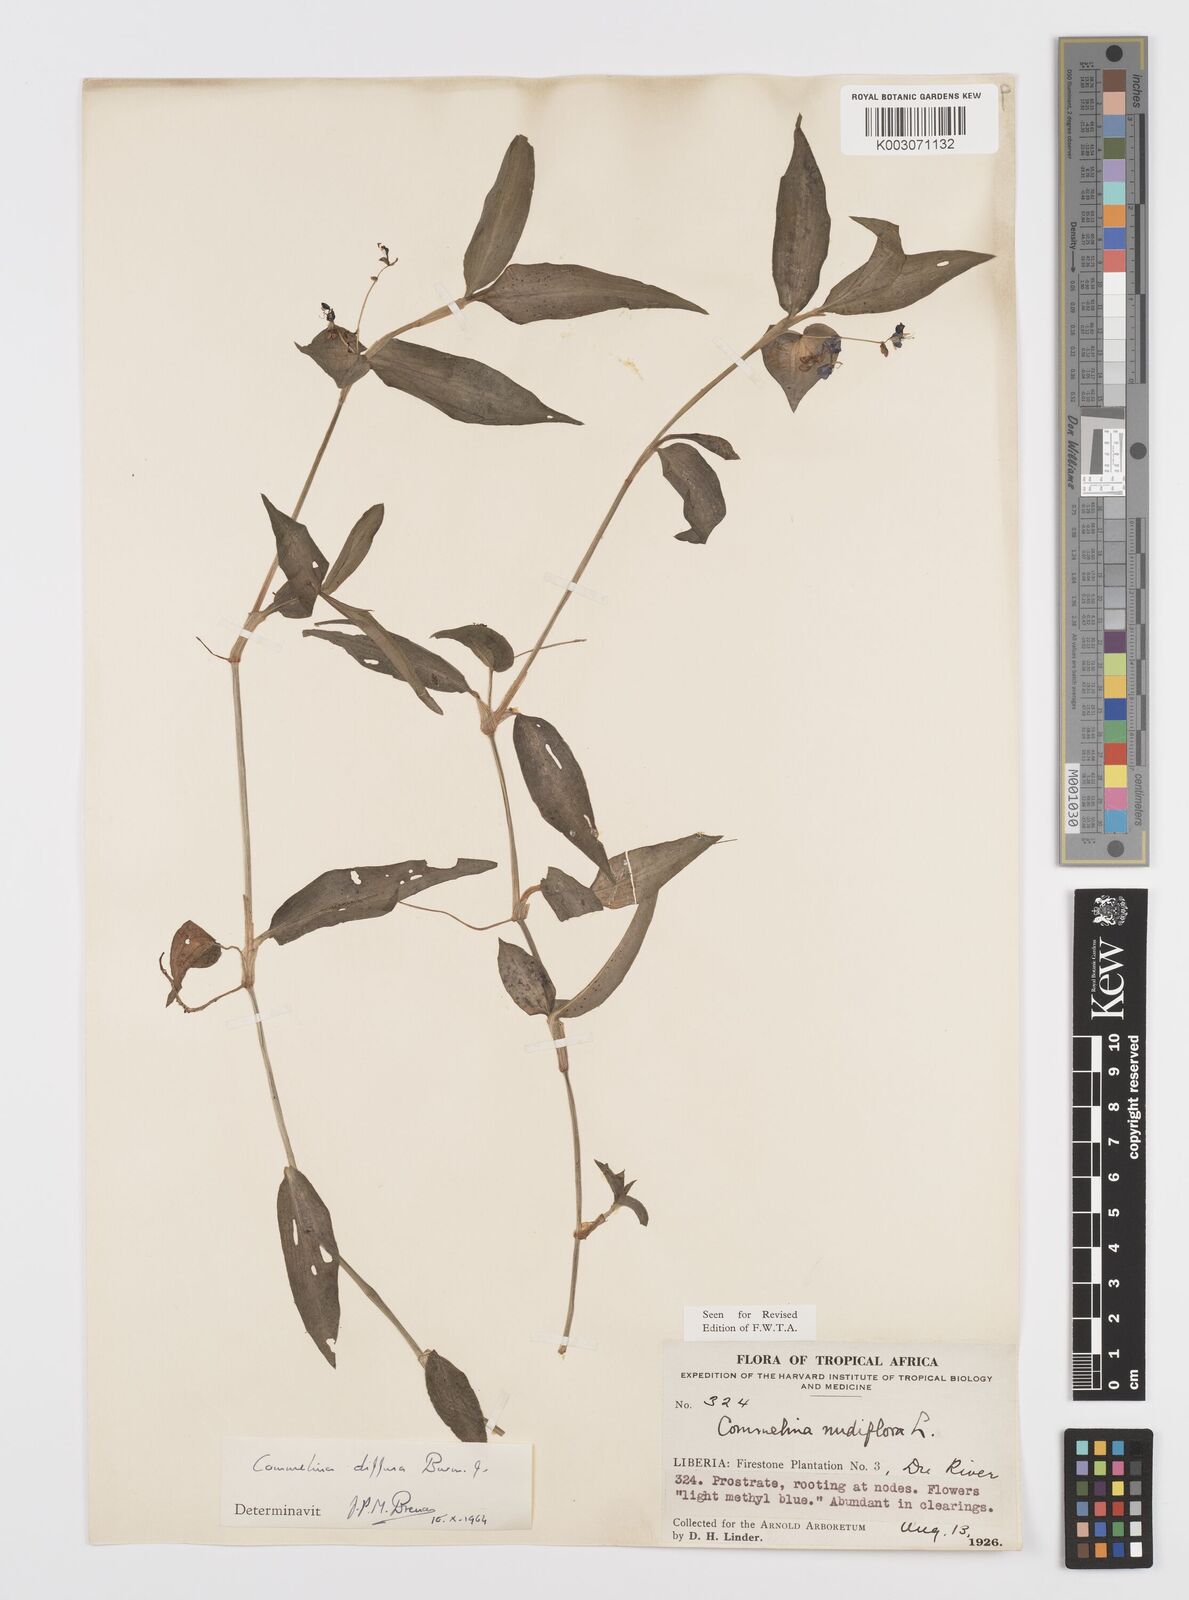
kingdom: Plantae
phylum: Tracheophyta
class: Liliopsida
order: Commelinales
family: Commelinaceae
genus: Commelina
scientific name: Commelina diffusa
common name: Climbing dayflower
